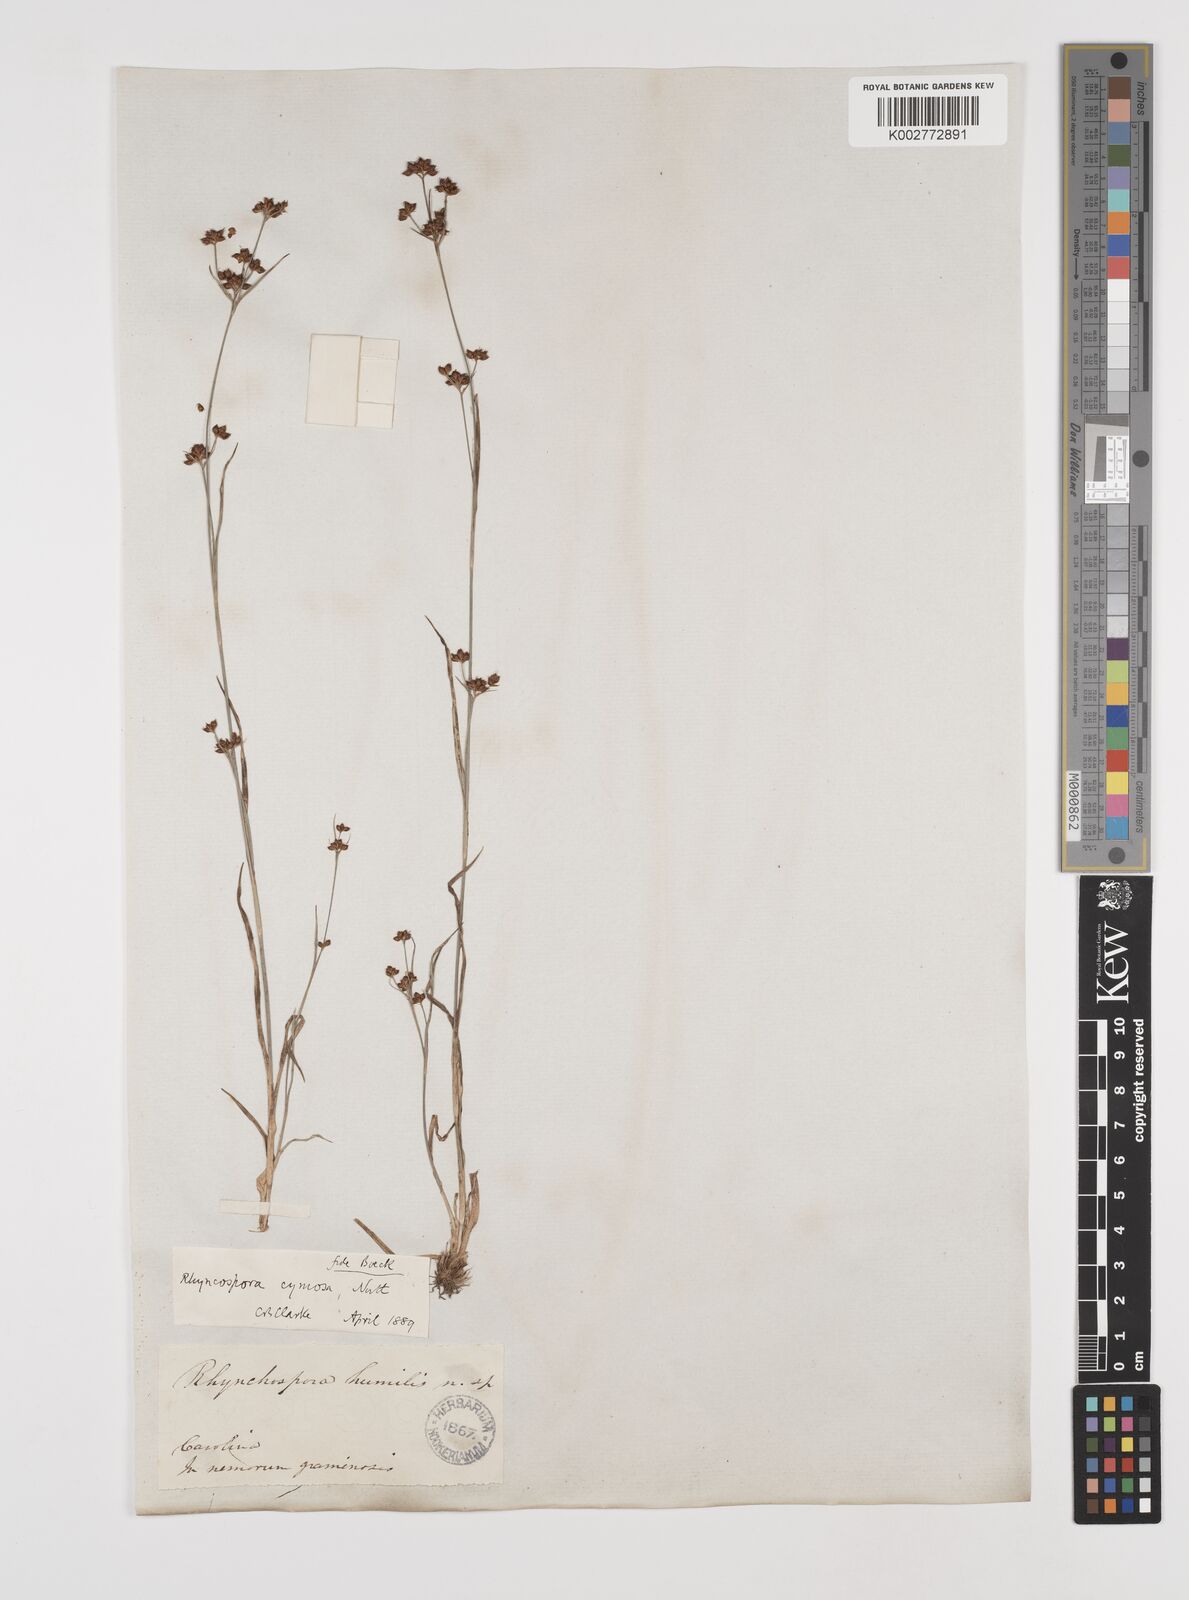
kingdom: Plantae
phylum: Tracheophyta
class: Liliopsida
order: Poales
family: Cyperaceae
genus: Scirpus
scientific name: Scirpus polyphyllus
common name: Leafy bulrush
